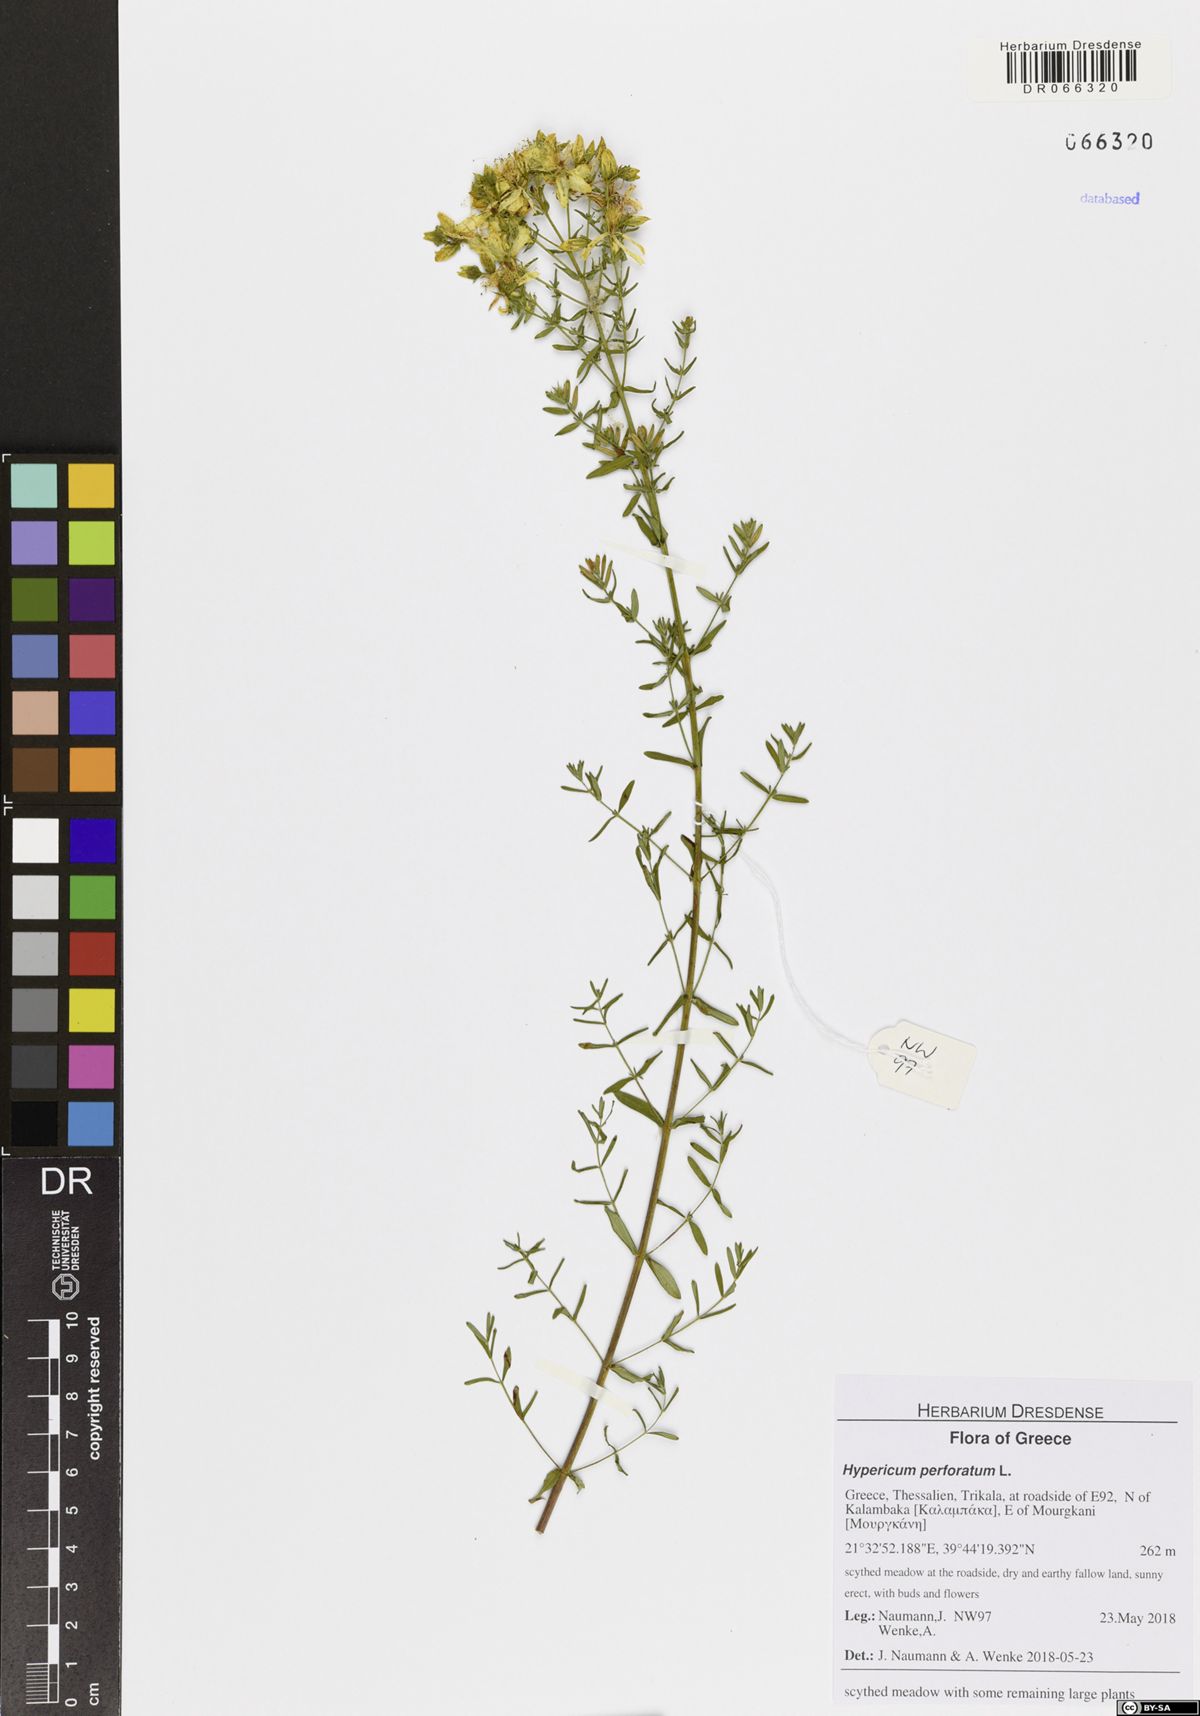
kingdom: Plantae
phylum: Tracheophyta
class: Magnoliopsida
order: Malpighiales
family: Hypericaceae
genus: Hypericum
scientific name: Hypericum perforatum
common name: Common st. johnswort
